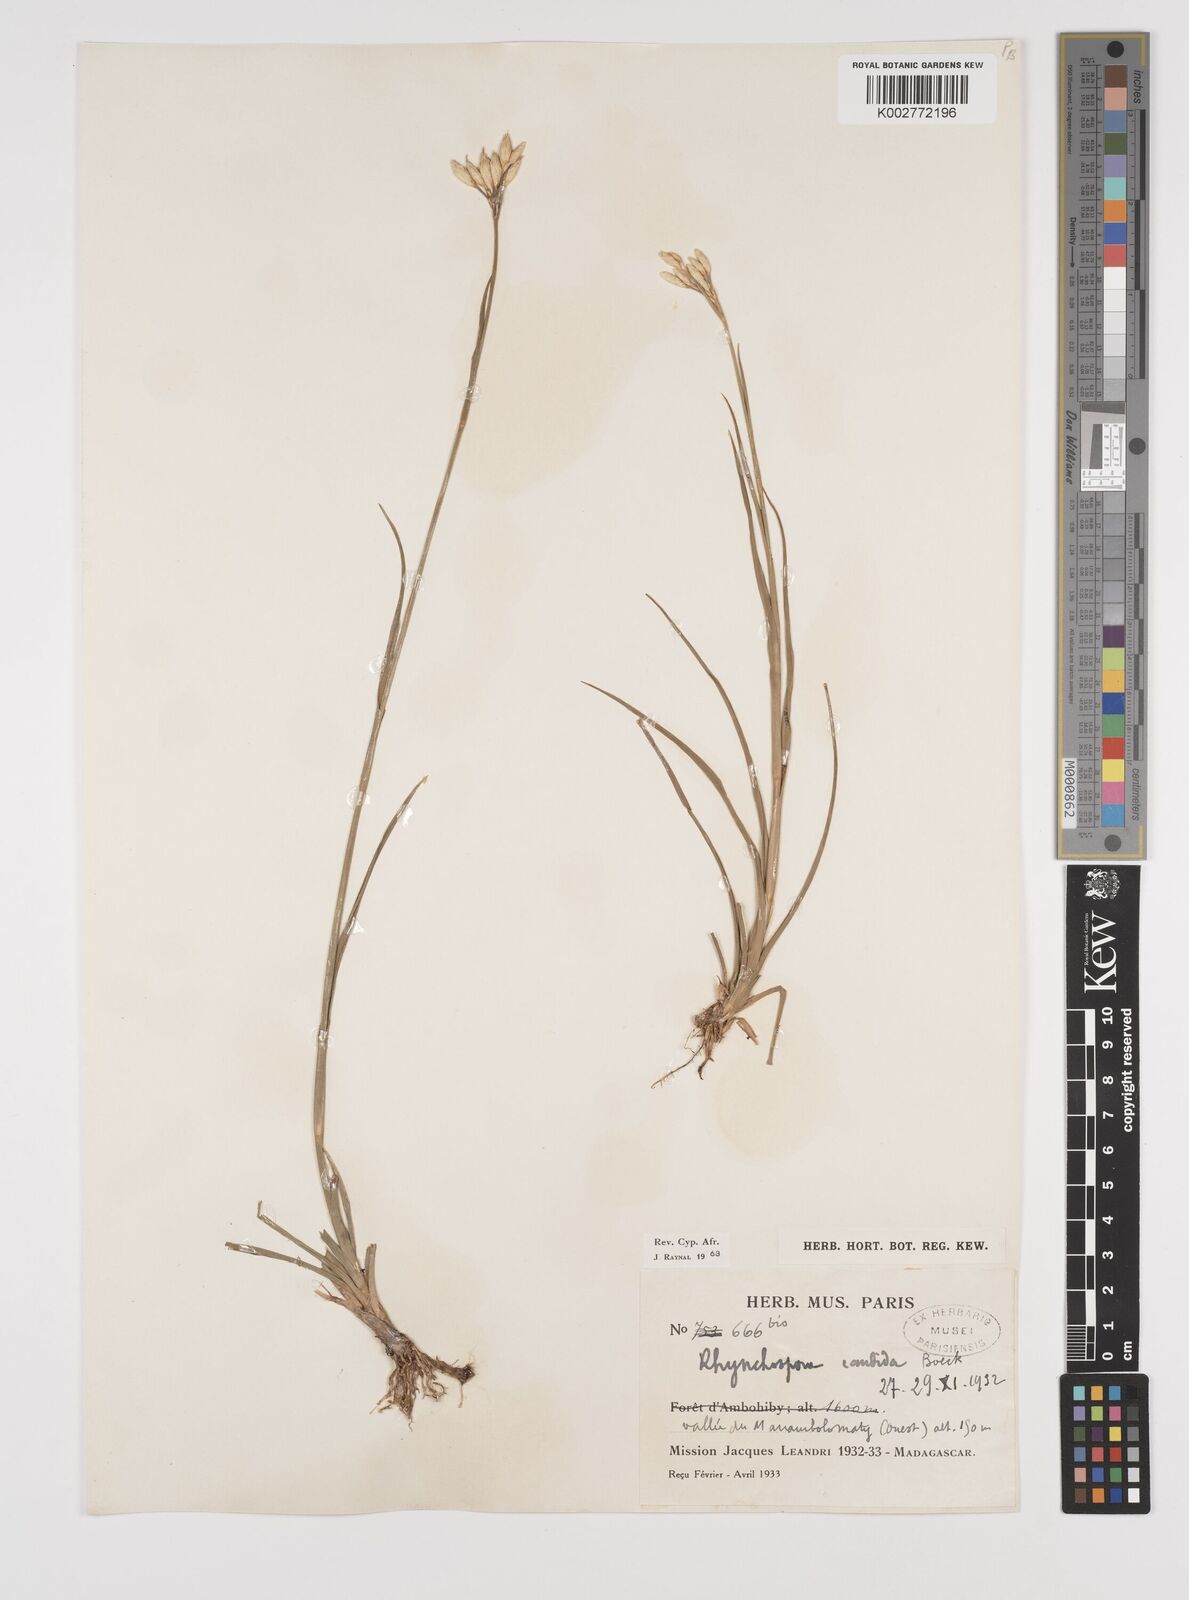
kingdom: Plantae
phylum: Tracheophyta
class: Liliopsida
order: Poales
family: Cyperaceae
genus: Rhynchospora
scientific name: Rhynchospora candida
